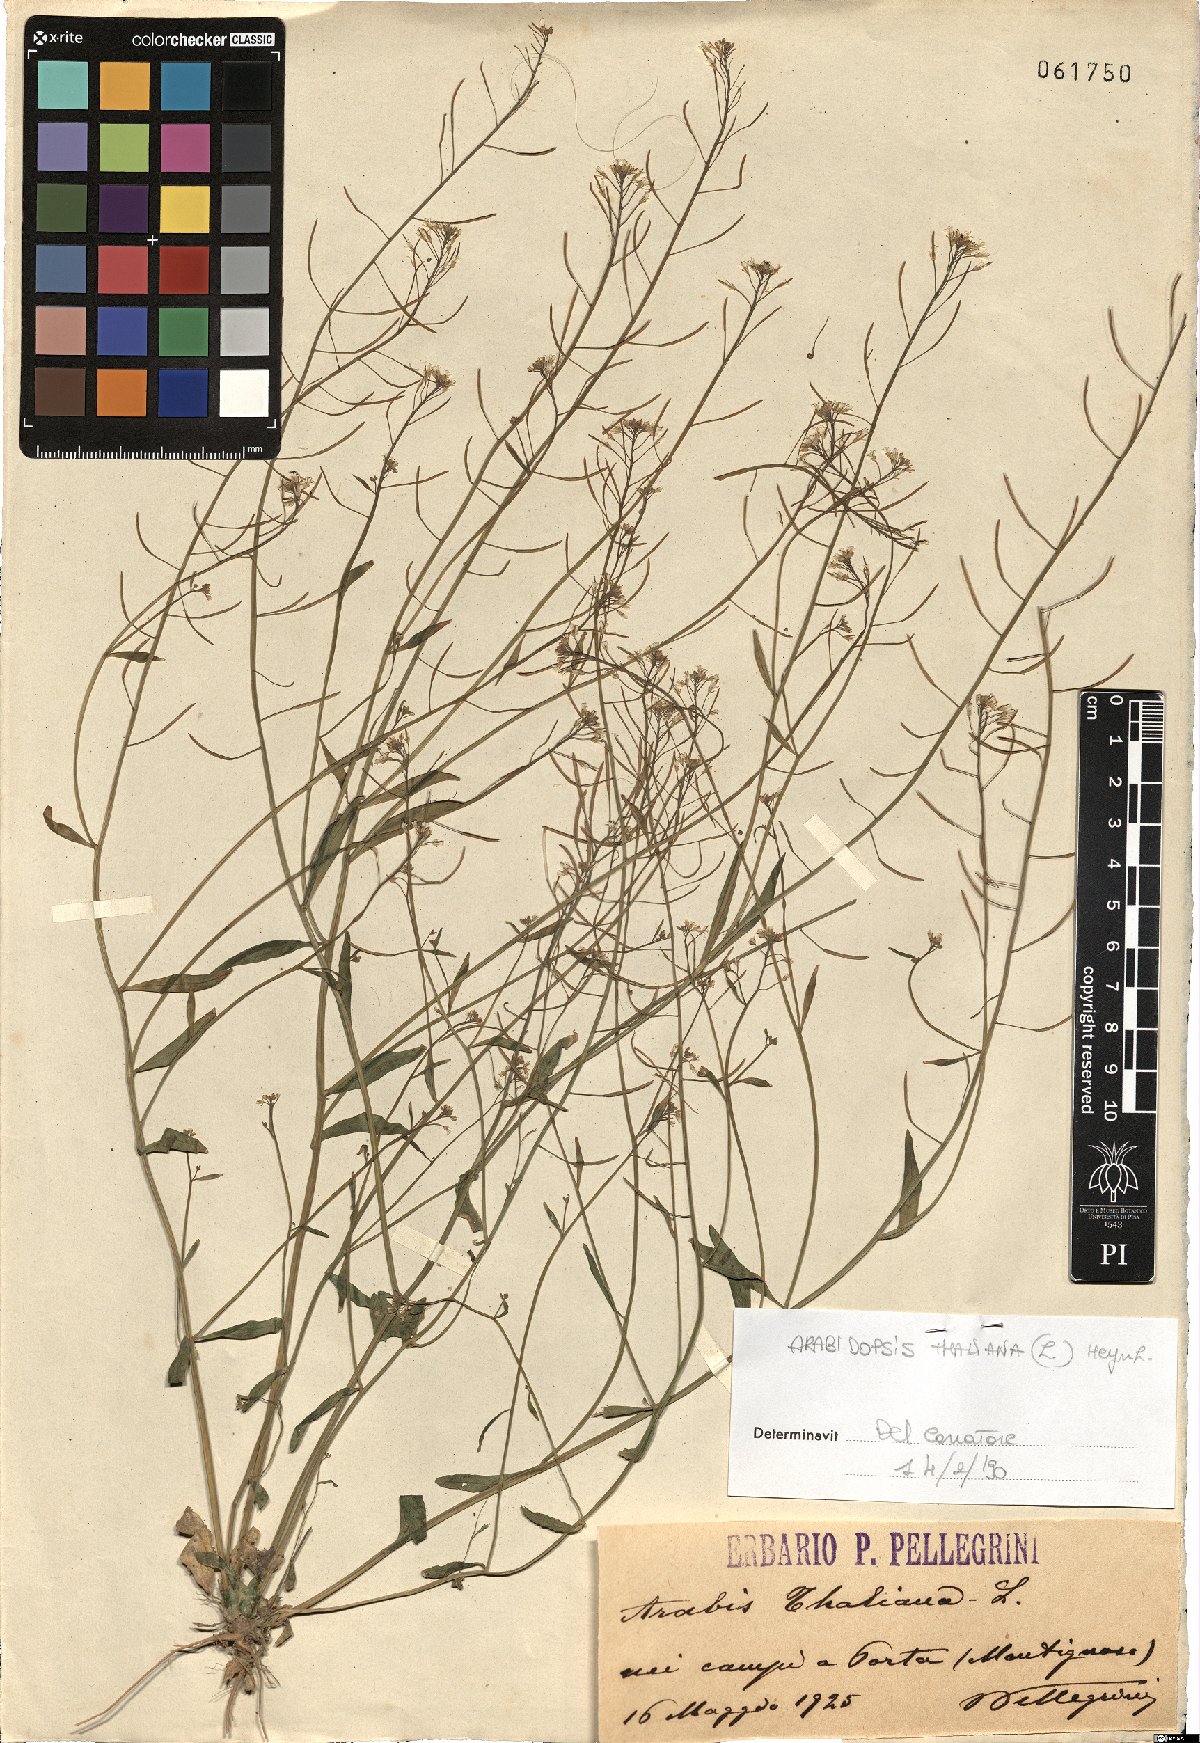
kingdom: Plantae
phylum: Tracheophyta
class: Magnoliopsida
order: Brassicales
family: Brassicaceae
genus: Arabidopsis
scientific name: Arabidopsis thaliana
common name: Thale cress
